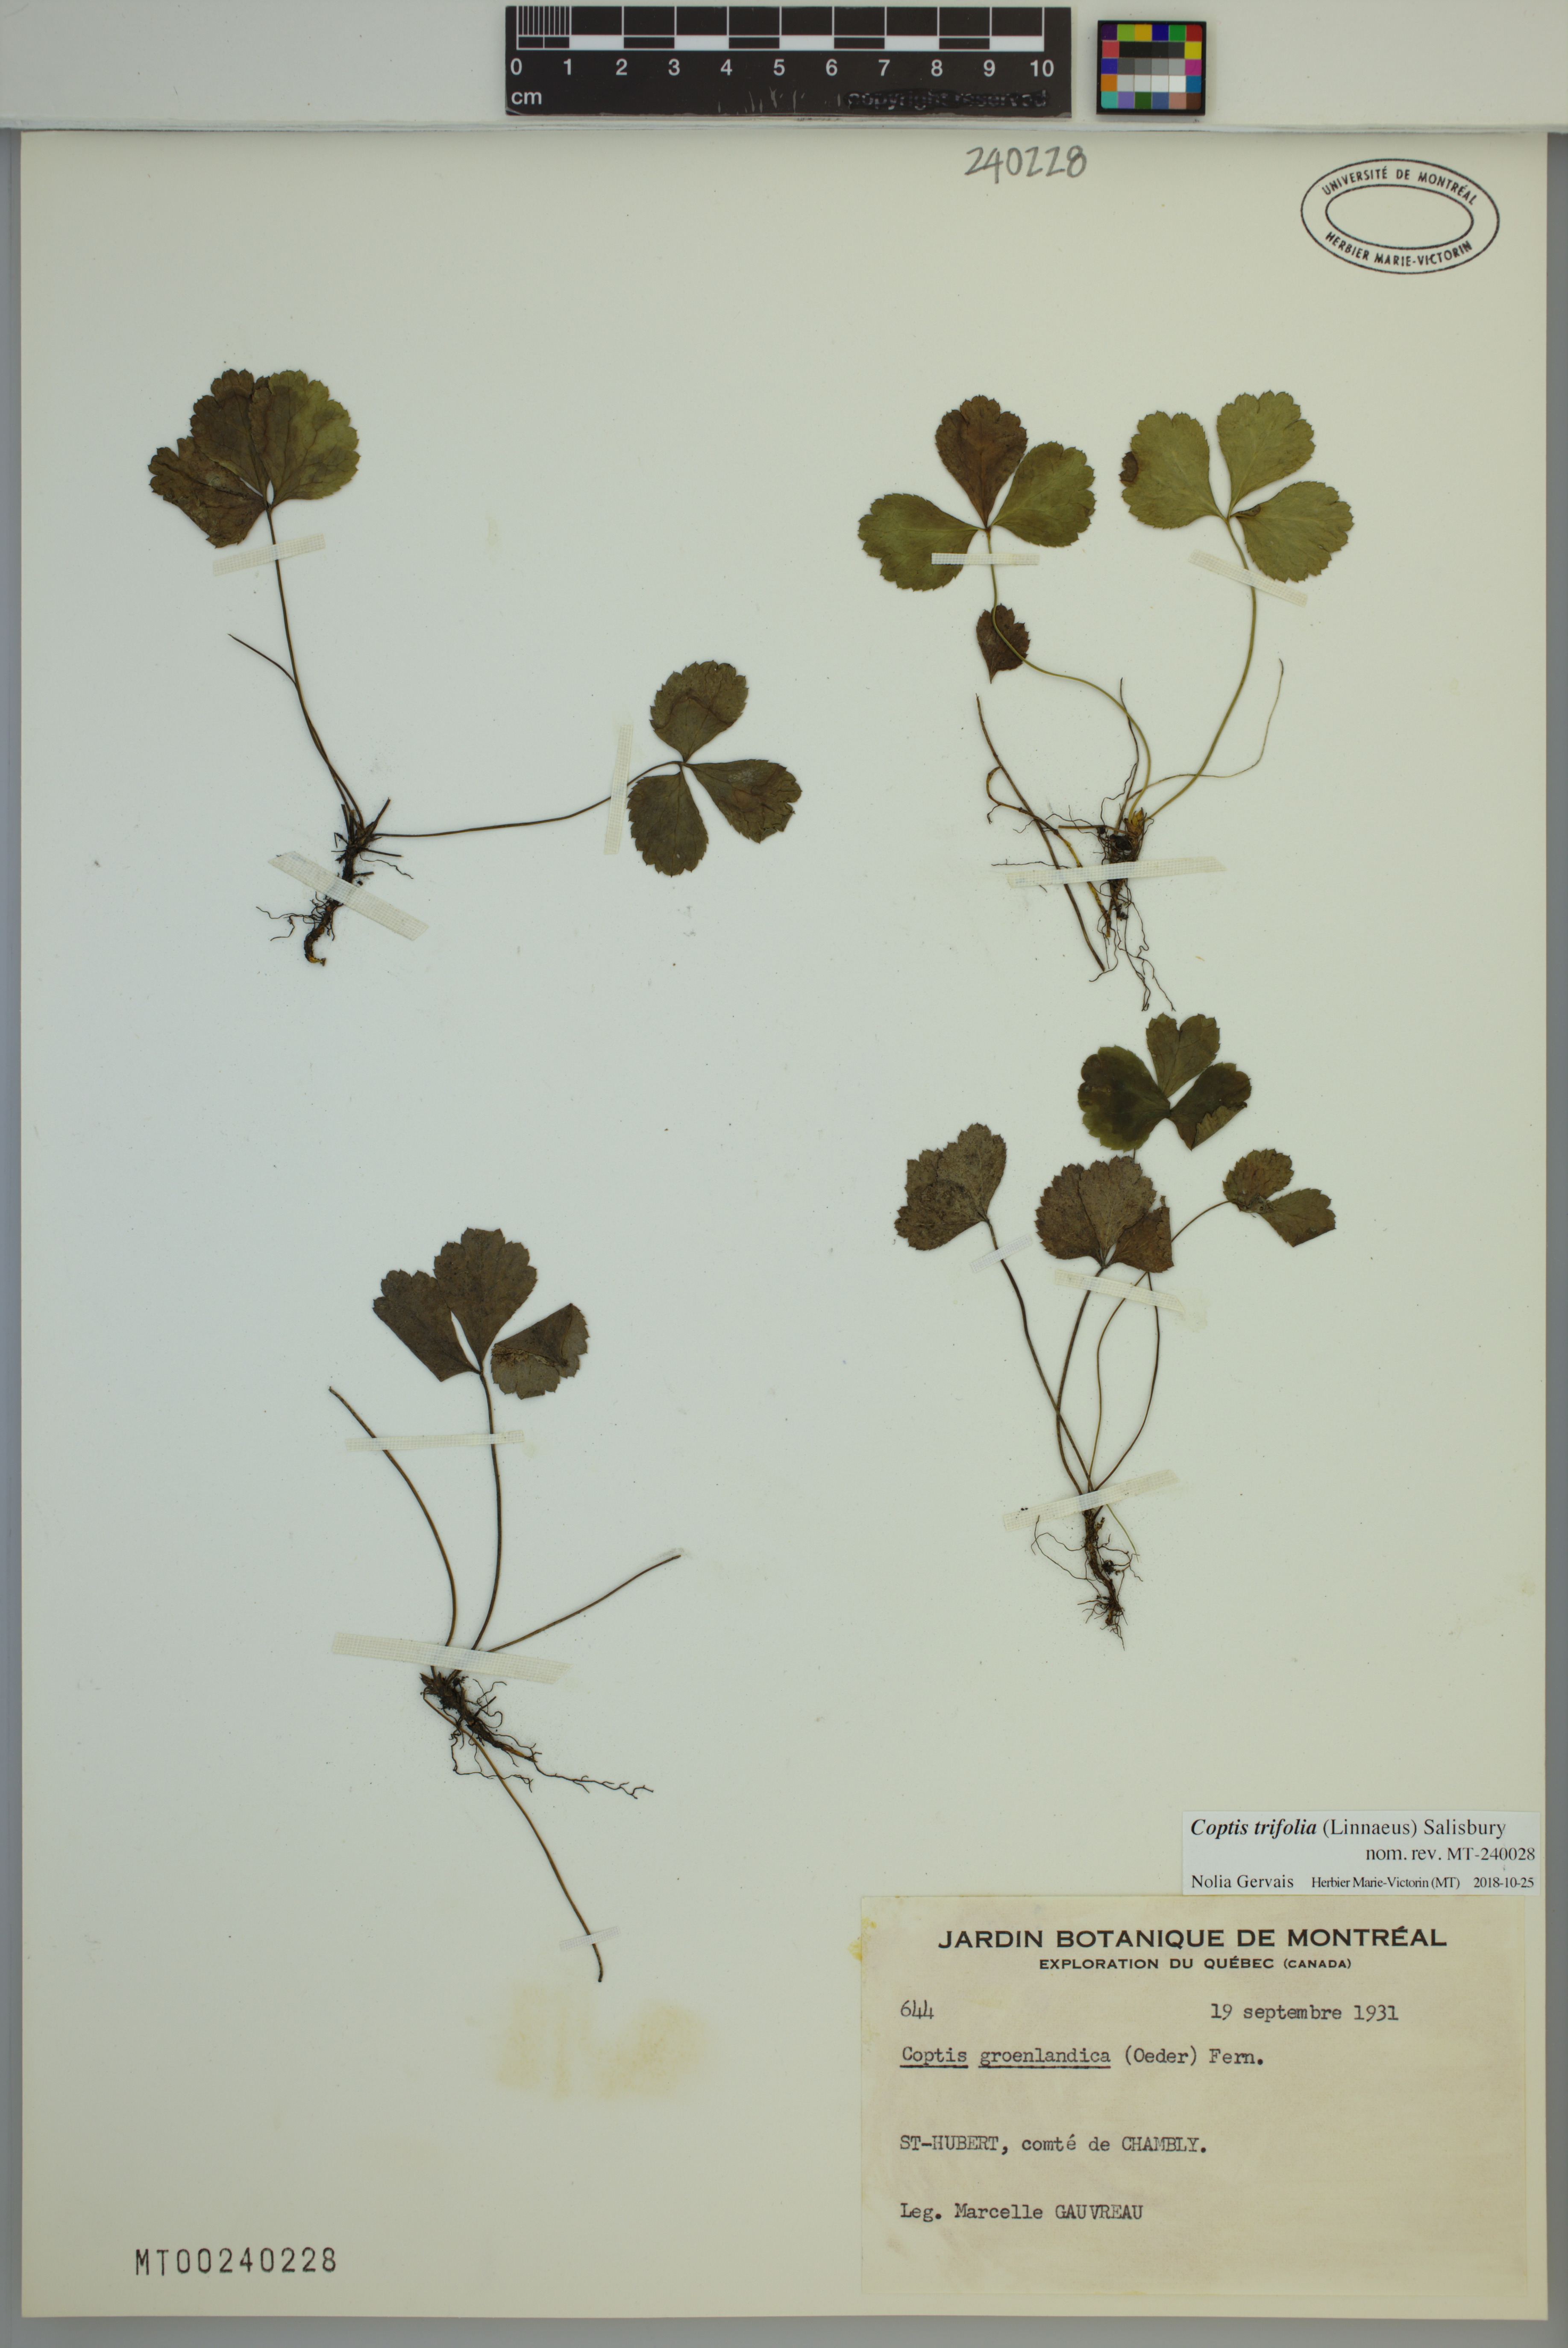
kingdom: Plantae
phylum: Tracheophyta
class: Magnoliopsida
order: Ranunculales
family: Ranunculaceae
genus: Coptis
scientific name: Coptis trifolia
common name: Canker-root
